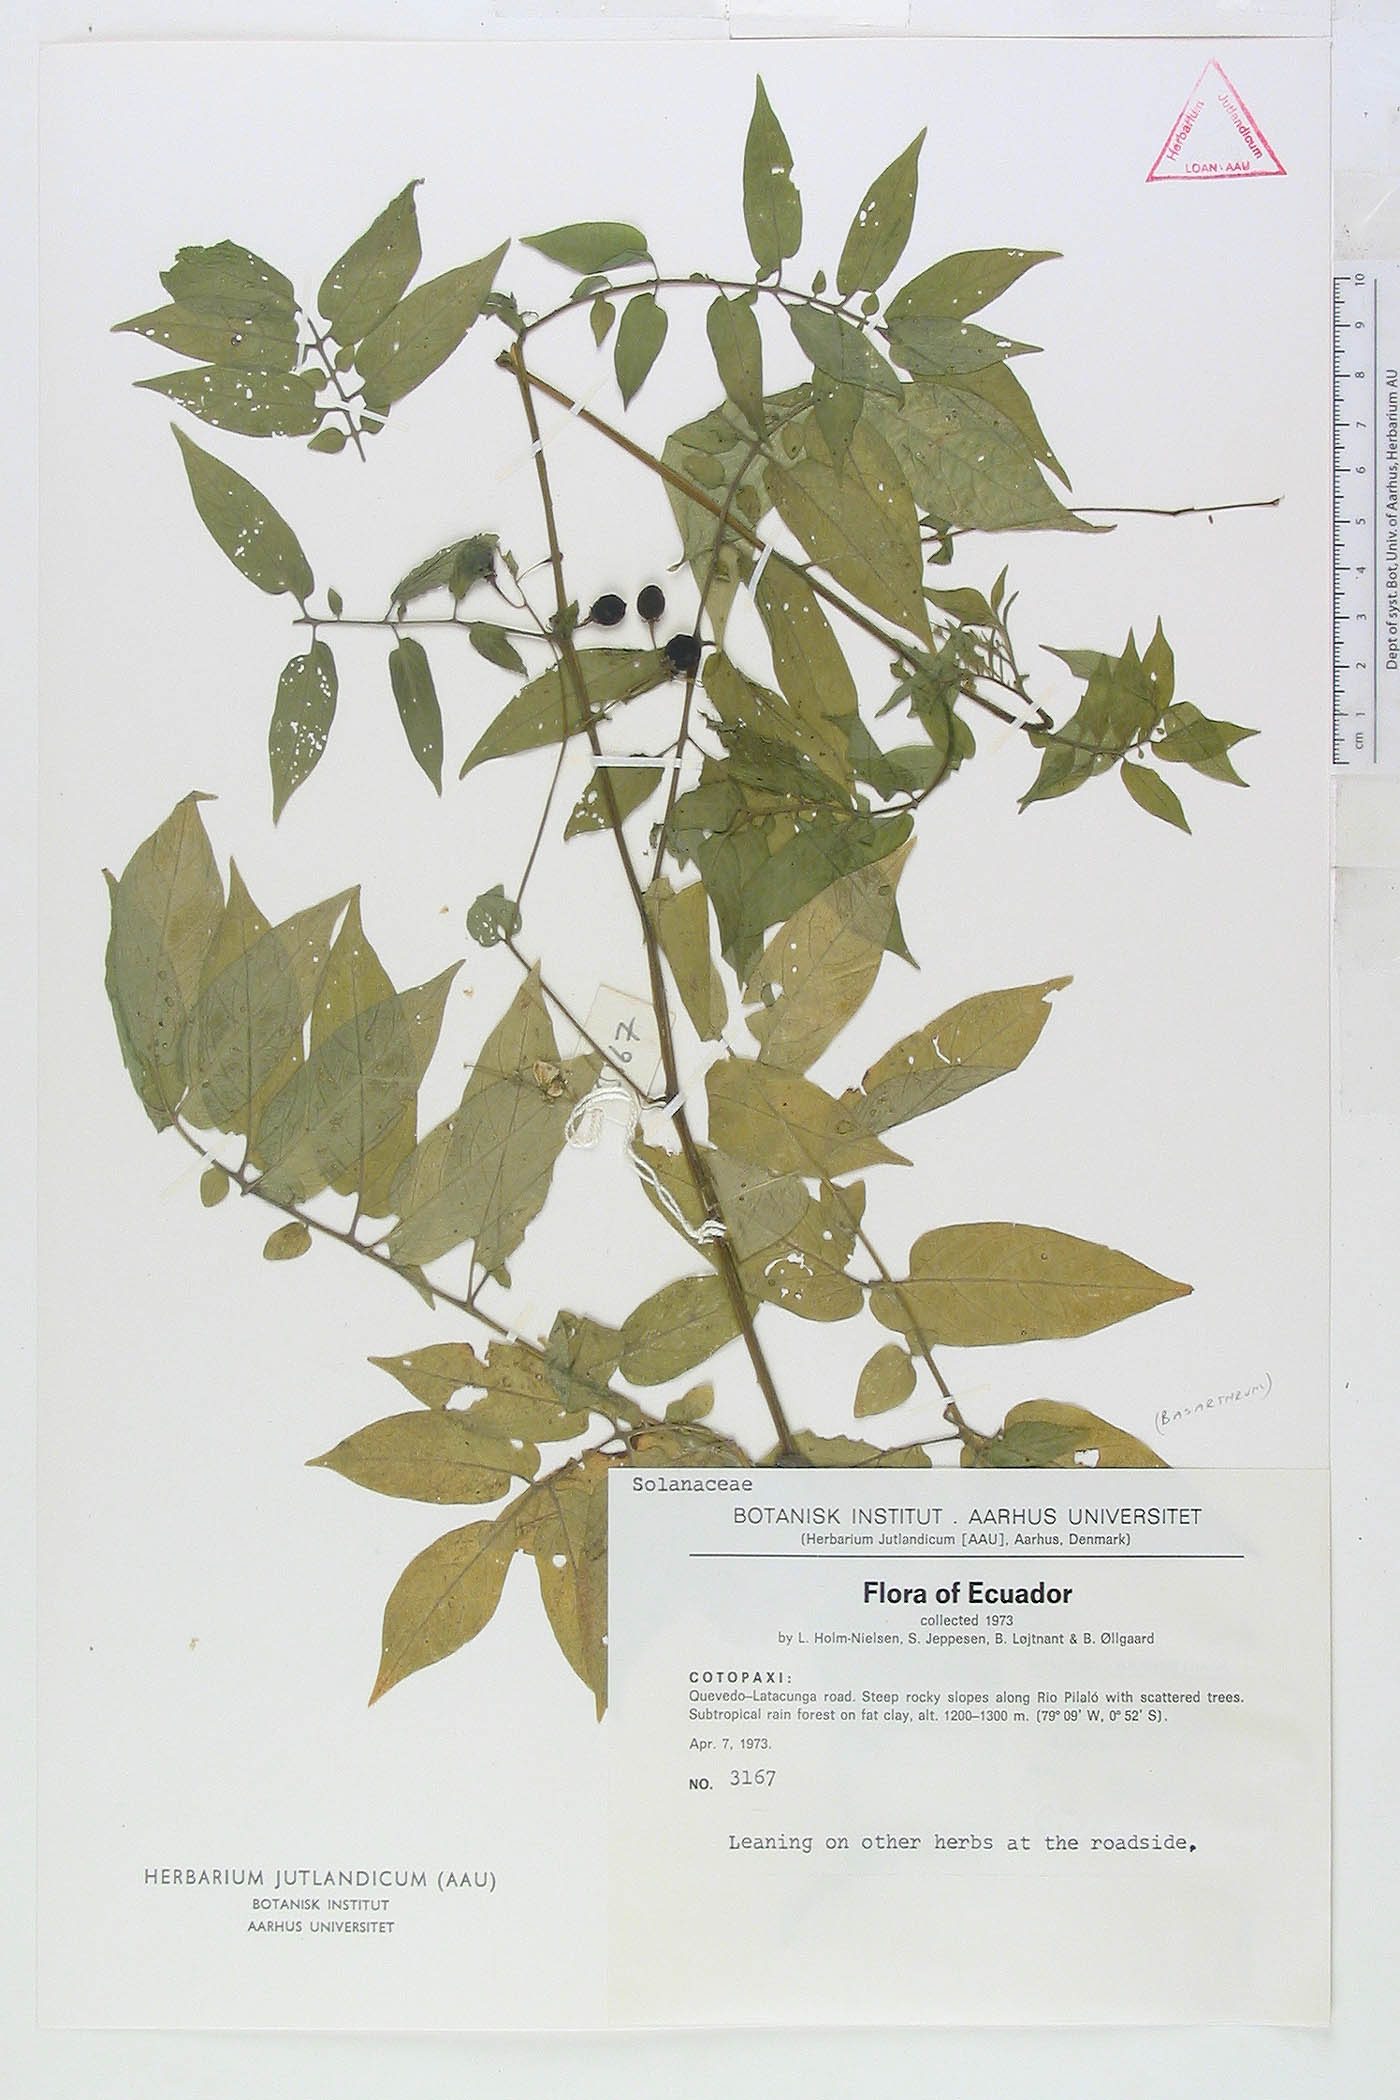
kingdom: Plantae
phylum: Tracheophyta
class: Magnoliopsida
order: Solanales
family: Solanaceae
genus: Solanum
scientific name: Solanum suaveolens
